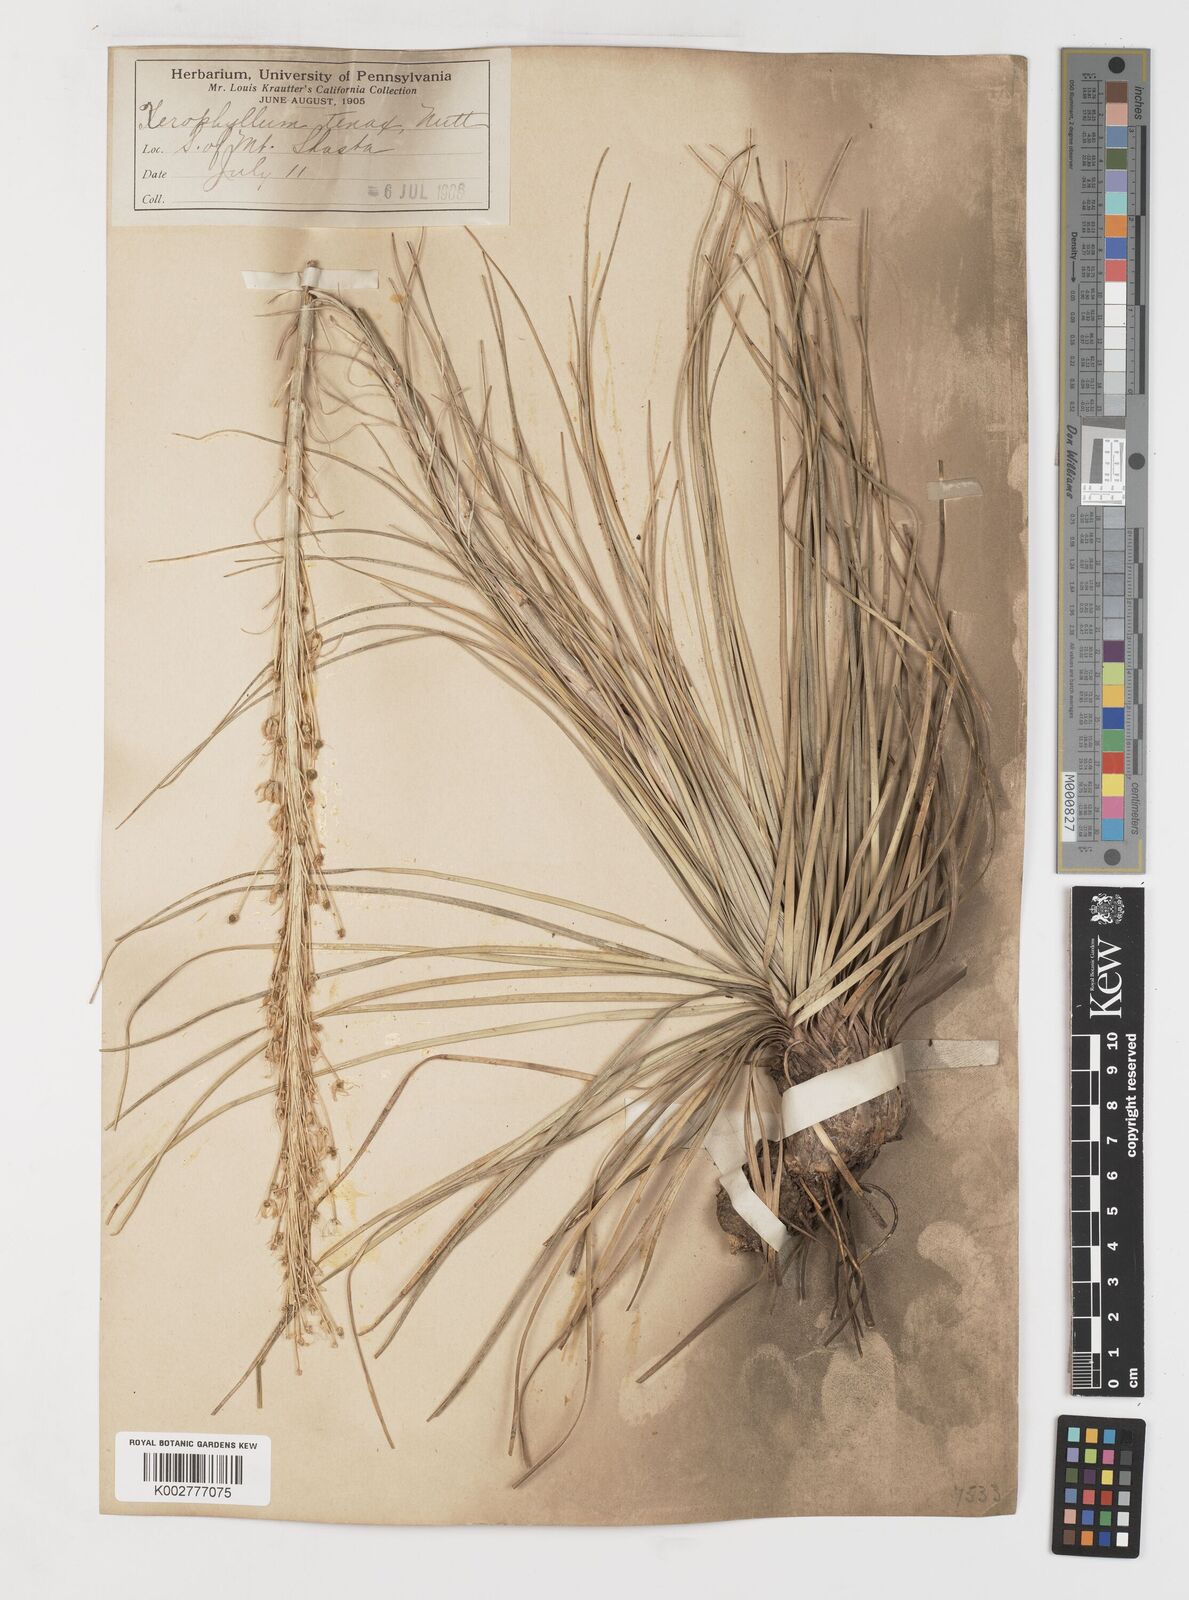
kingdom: Plantae
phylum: Tracheophyta
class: Liliopsida
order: Liliales
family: Melanthiaceae
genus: Xerophyllum
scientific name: Xerophyllum tenax
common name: Bear-grass
